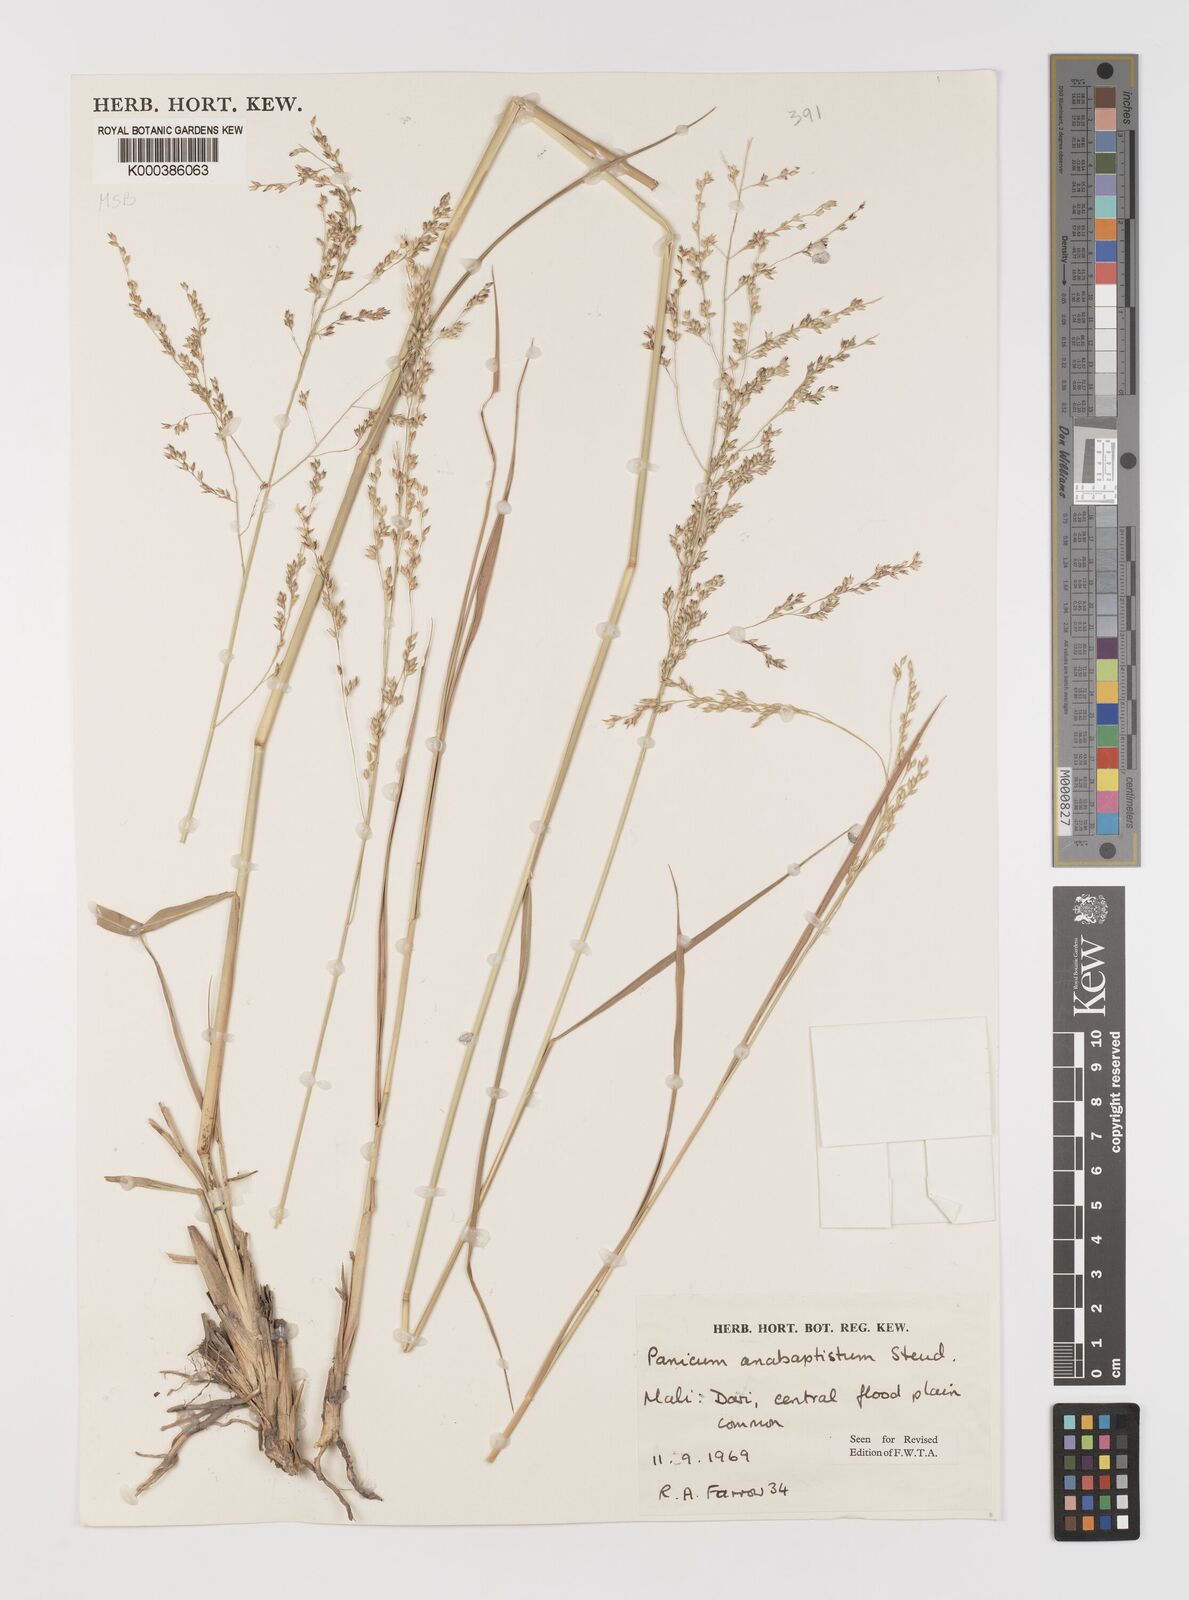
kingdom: Plantae
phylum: Tracheophyta
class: Liliopsida
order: Poales
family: Poaceae
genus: Panicum
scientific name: Panicum anabaptistum
